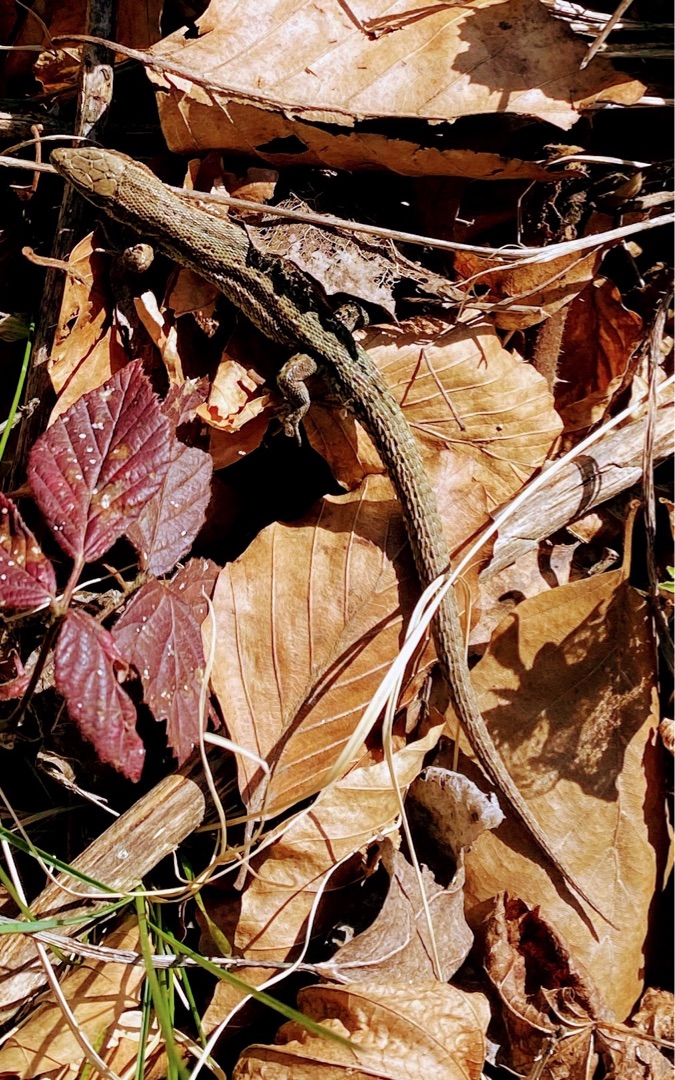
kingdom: Animalia
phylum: Chordata
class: Squamata
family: Lacertidae
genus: Zootoca
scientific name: Zootoca vivipara
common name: Skovfirben
